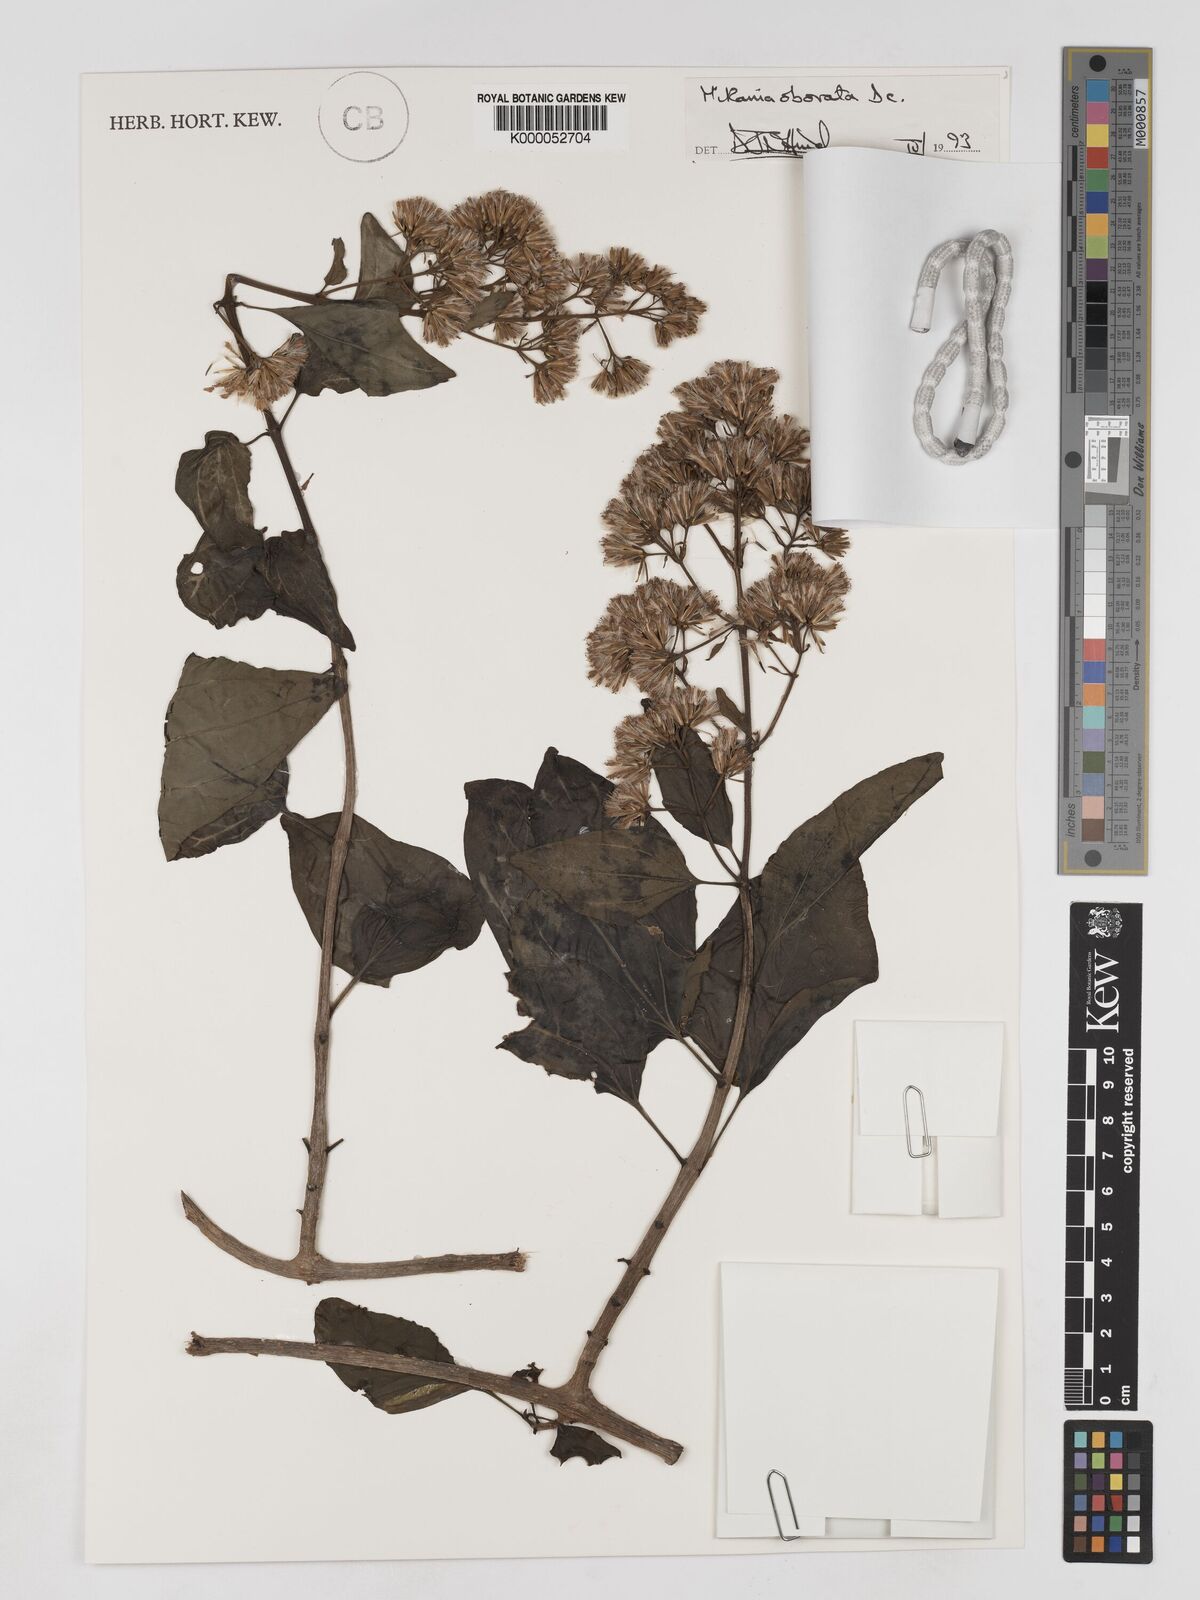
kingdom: Plantae
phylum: Tracheophyta
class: Magnoliopsida
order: Asterales
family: Asteraceae
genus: Mikania
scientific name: Mikania obovata
